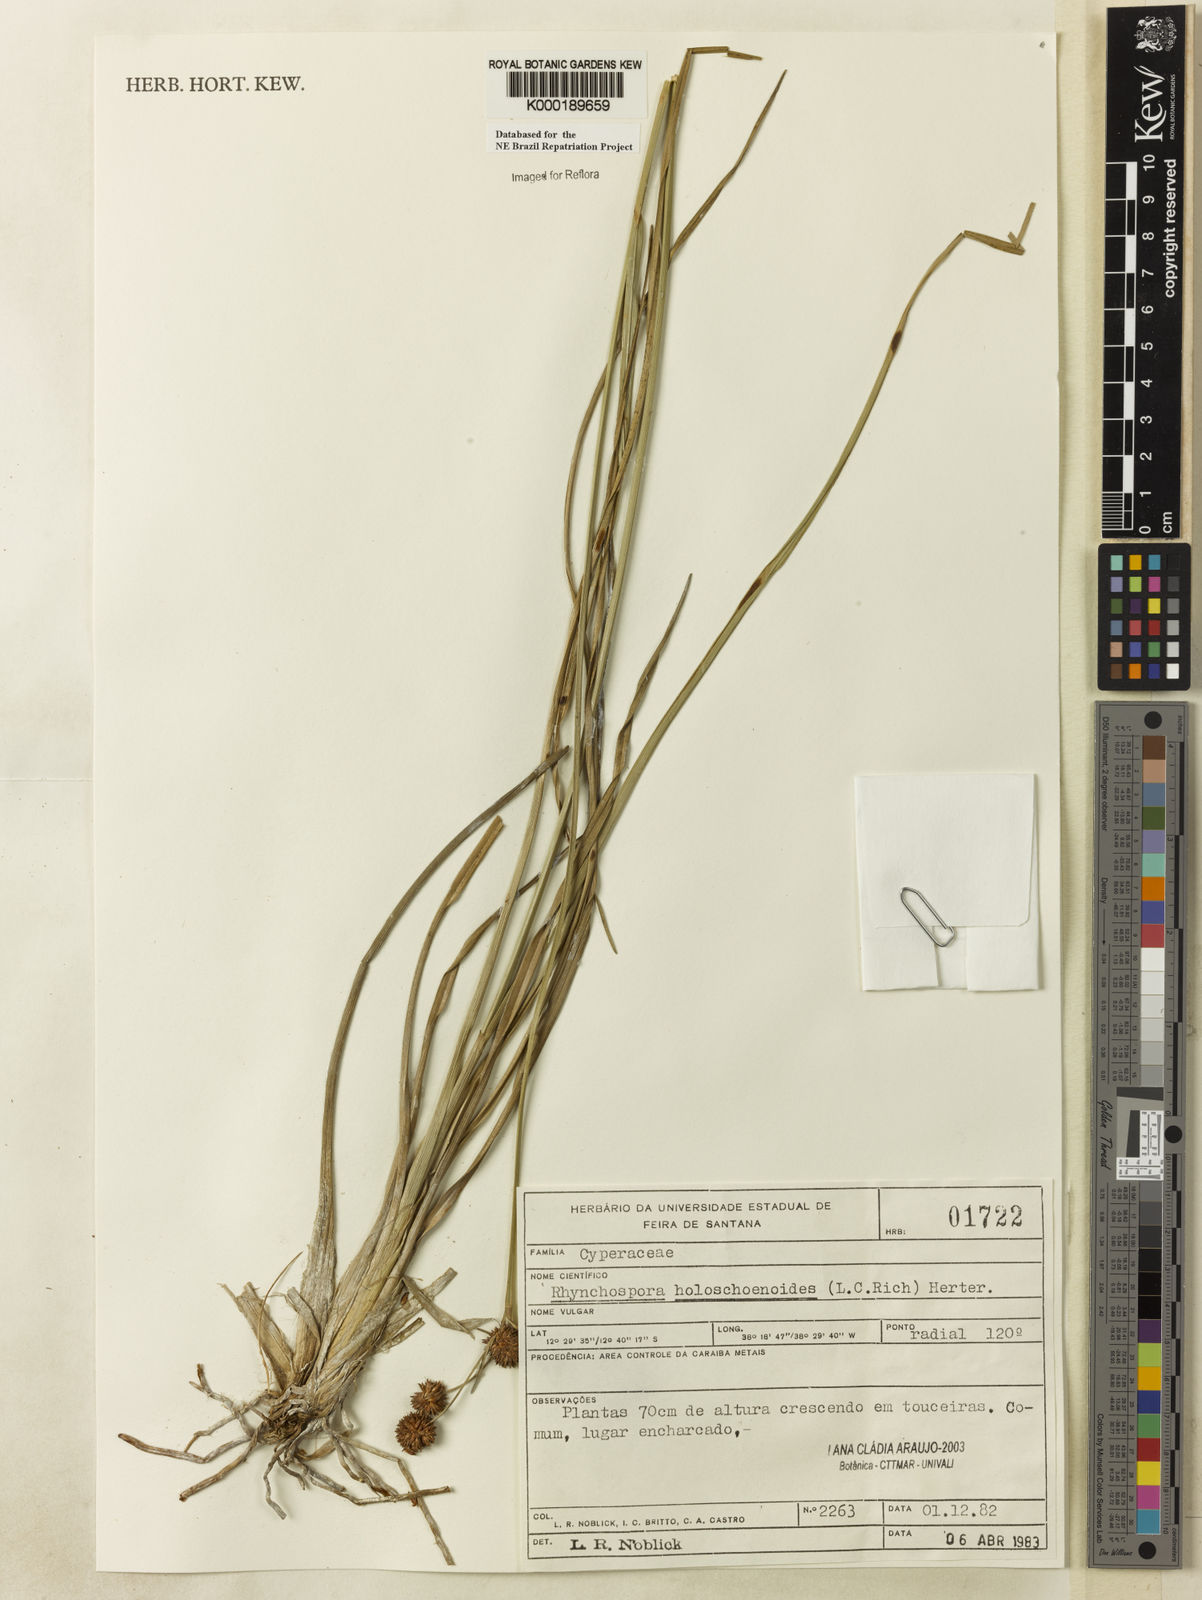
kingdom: Plantae
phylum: Tracheophyta
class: Liliopsida
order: Poales
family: Cyperaceae
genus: Rhynchospora
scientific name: Rhynchospora holoschoenoides
